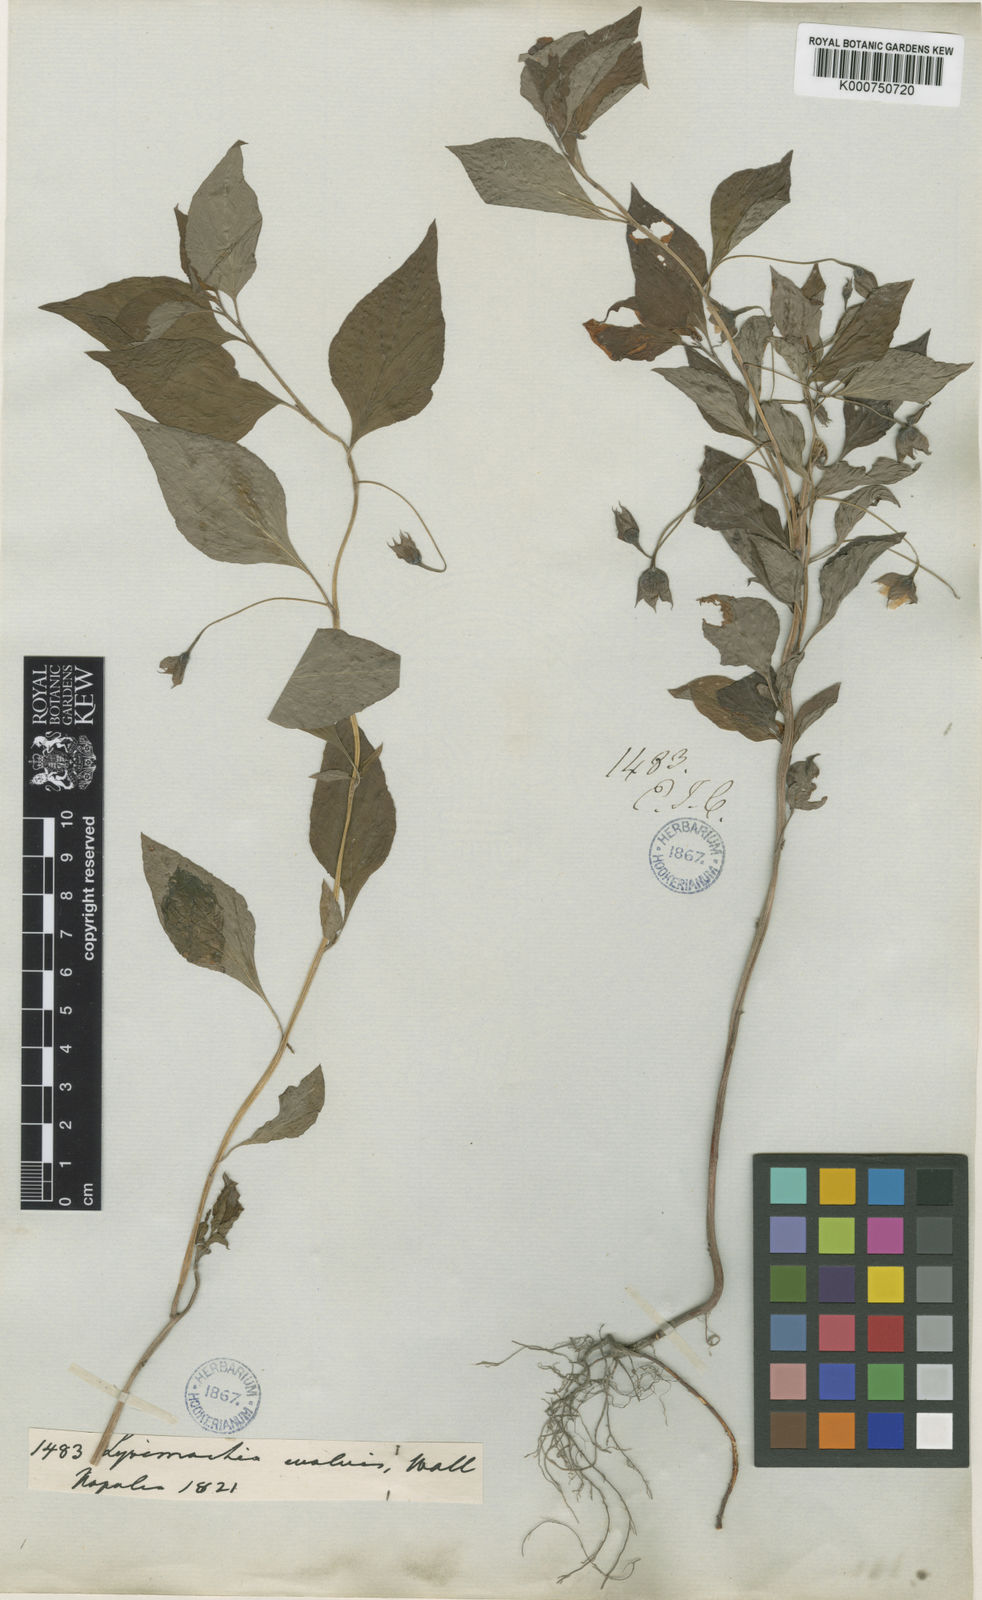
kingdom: Plantae
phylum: Tracheophyta
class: Magnoliopsida
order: Ericales
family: Primulaceae
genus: Lysimachia
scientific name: Lysimachia evalvis
